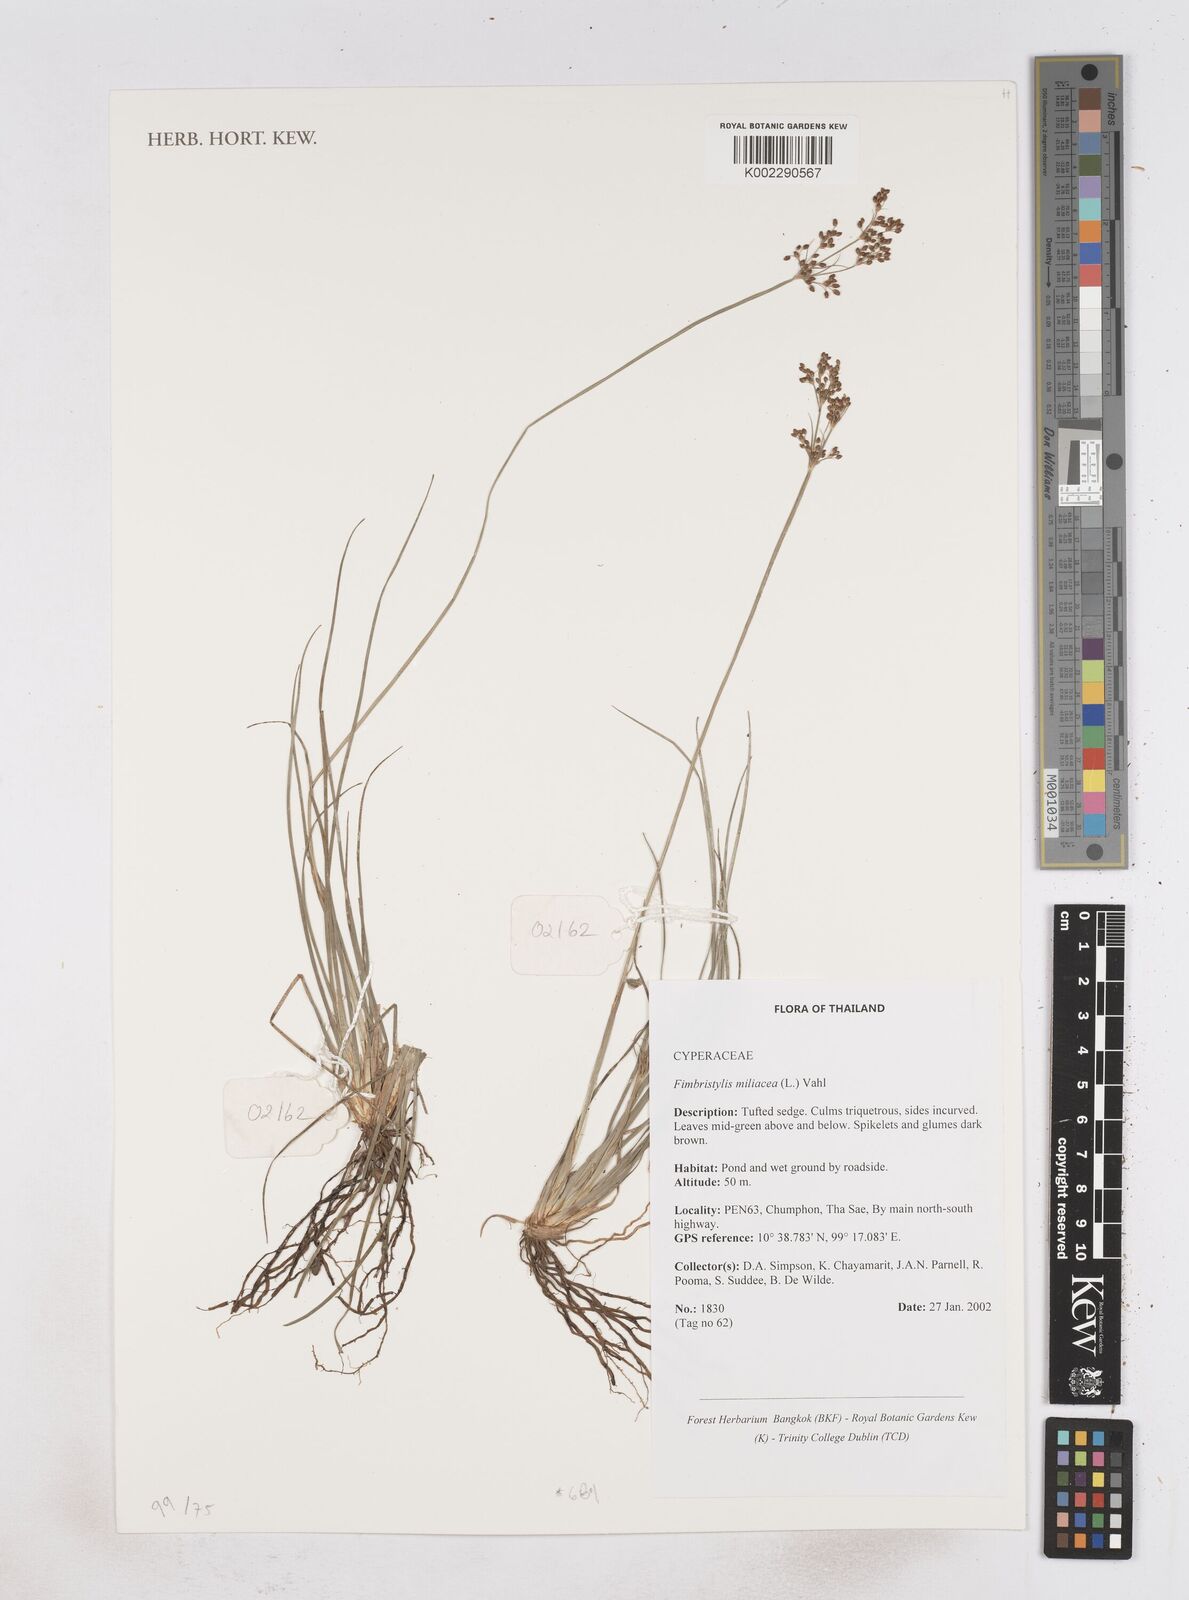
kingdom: Plantae
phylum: Tracheophyta
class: Liliopsida
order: Poales
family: Cyperaceae
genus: Fimbristylis
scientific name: Fimbristylis quinquangularis
